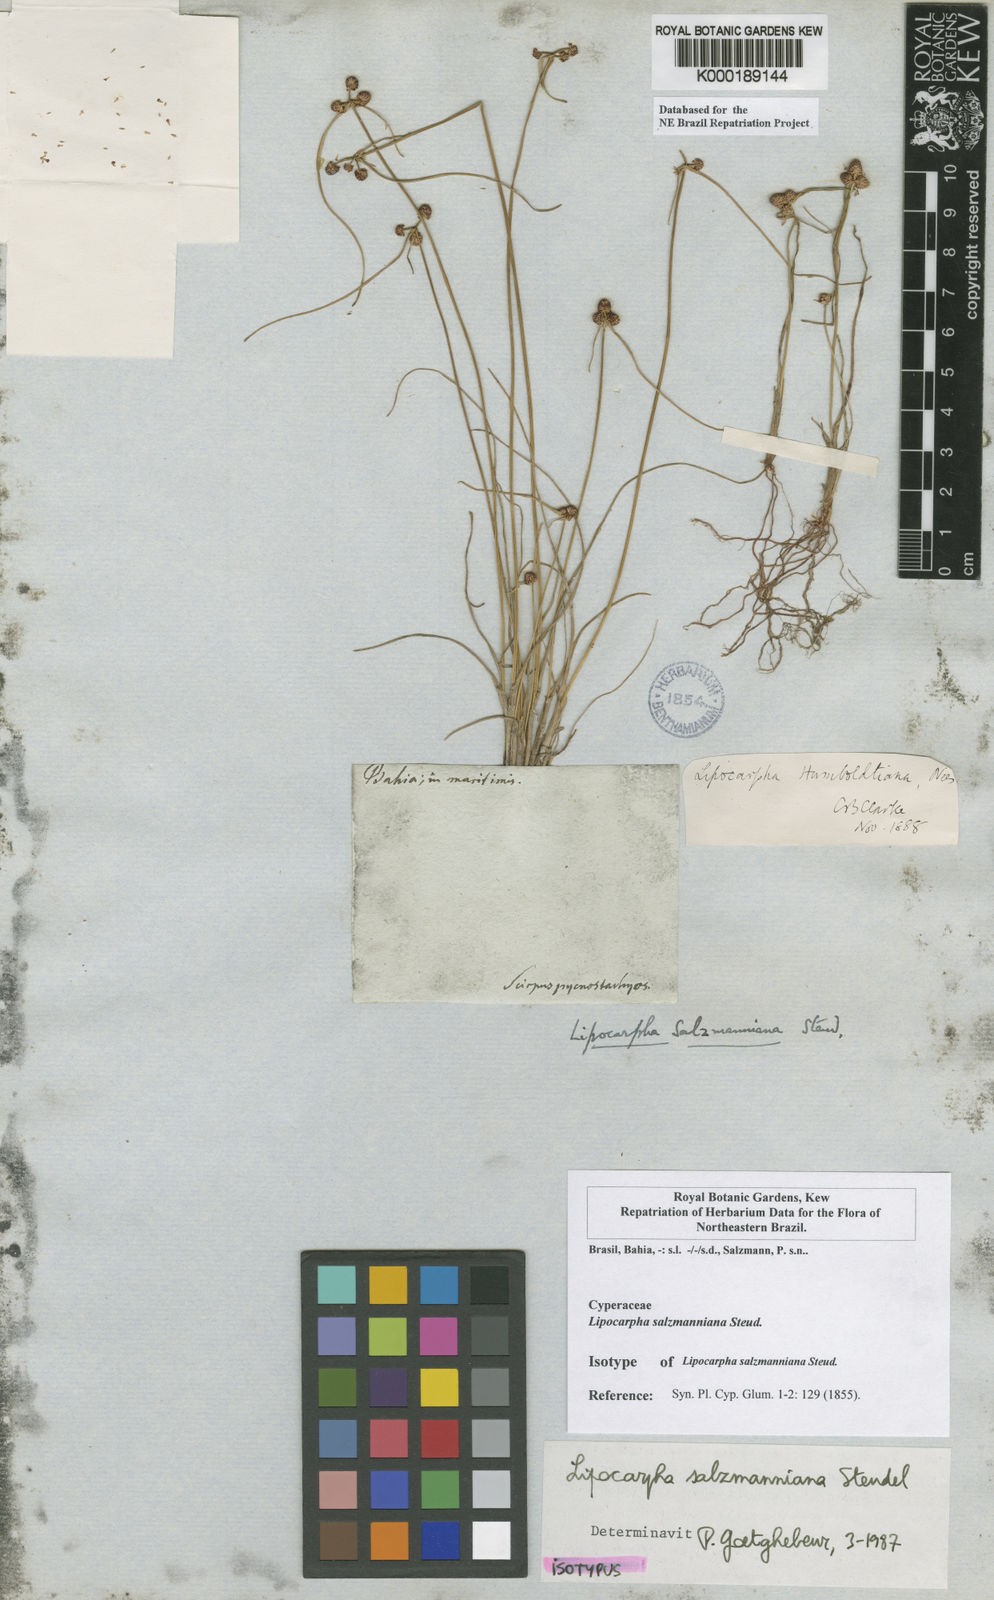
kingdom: Plantae
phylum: Tracheophyta
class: Liliopsida
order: Poales
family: Cyperaceae
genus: Cyperus
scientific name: Cyperus salzmannianus
